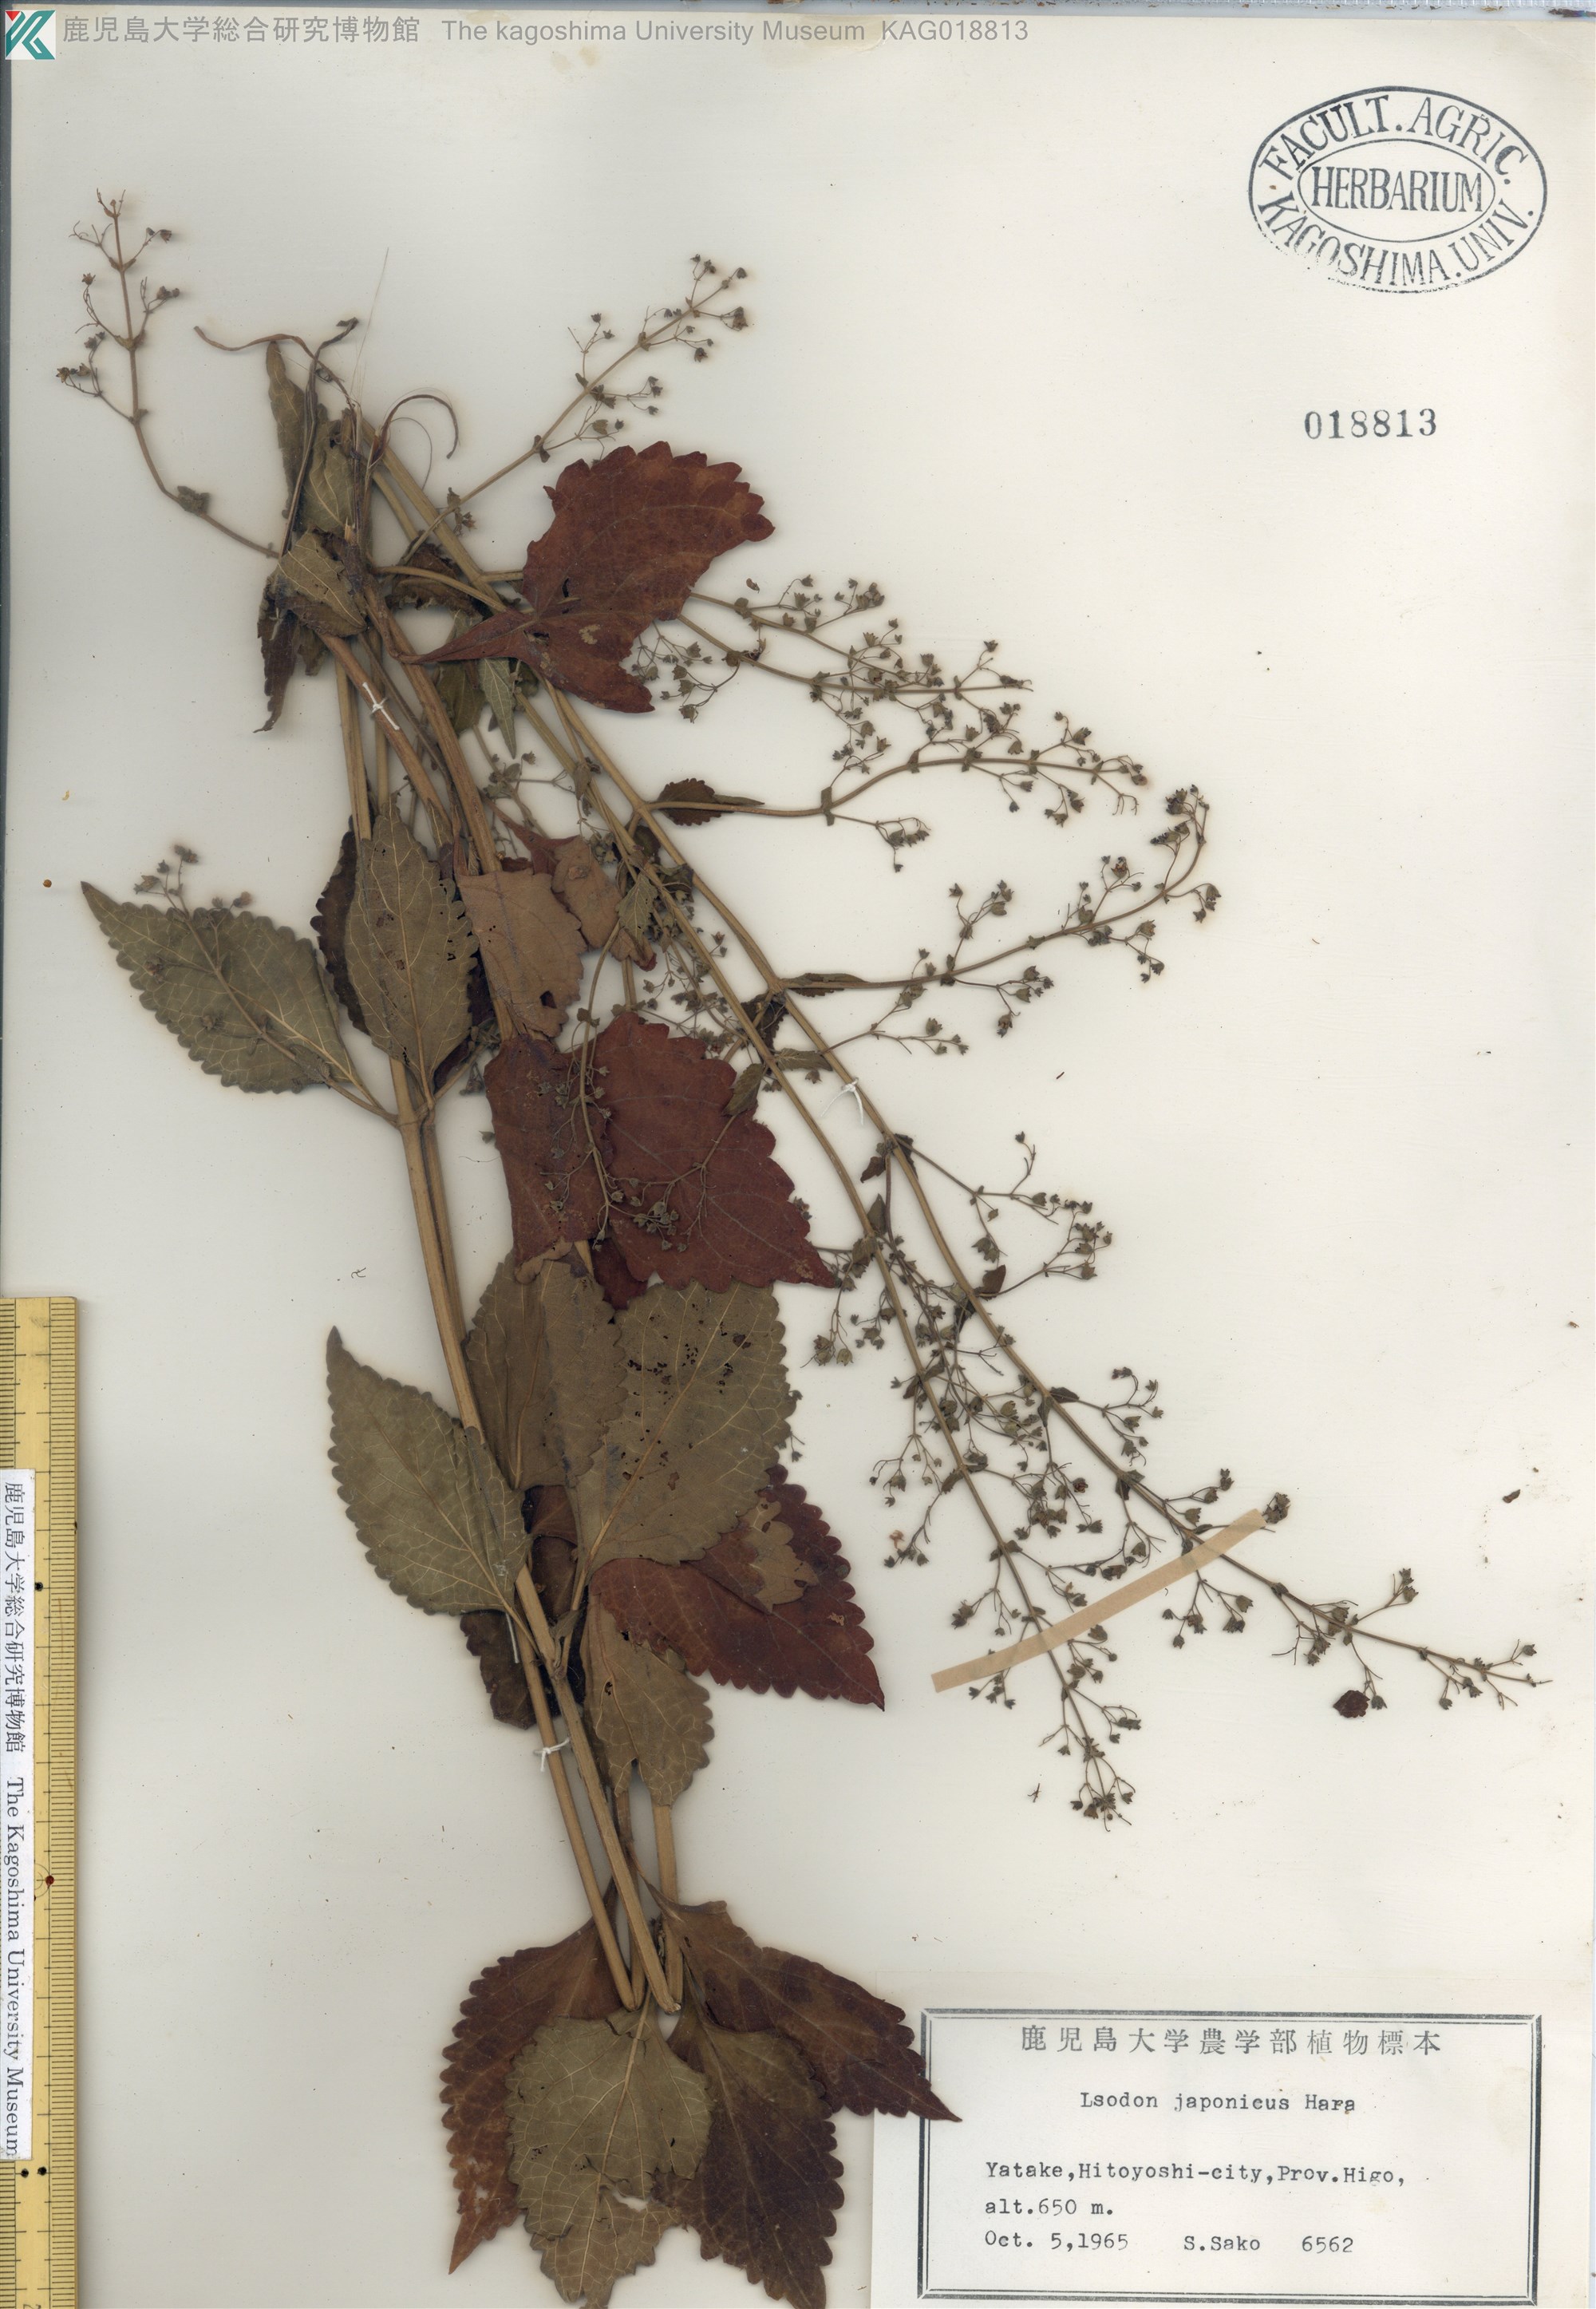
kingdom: Plantae
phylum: Tracheophyta
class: Magnoliopsida
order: Lamiales
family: Lamiaceae
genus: Isodon
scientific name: Isodon japonicus
